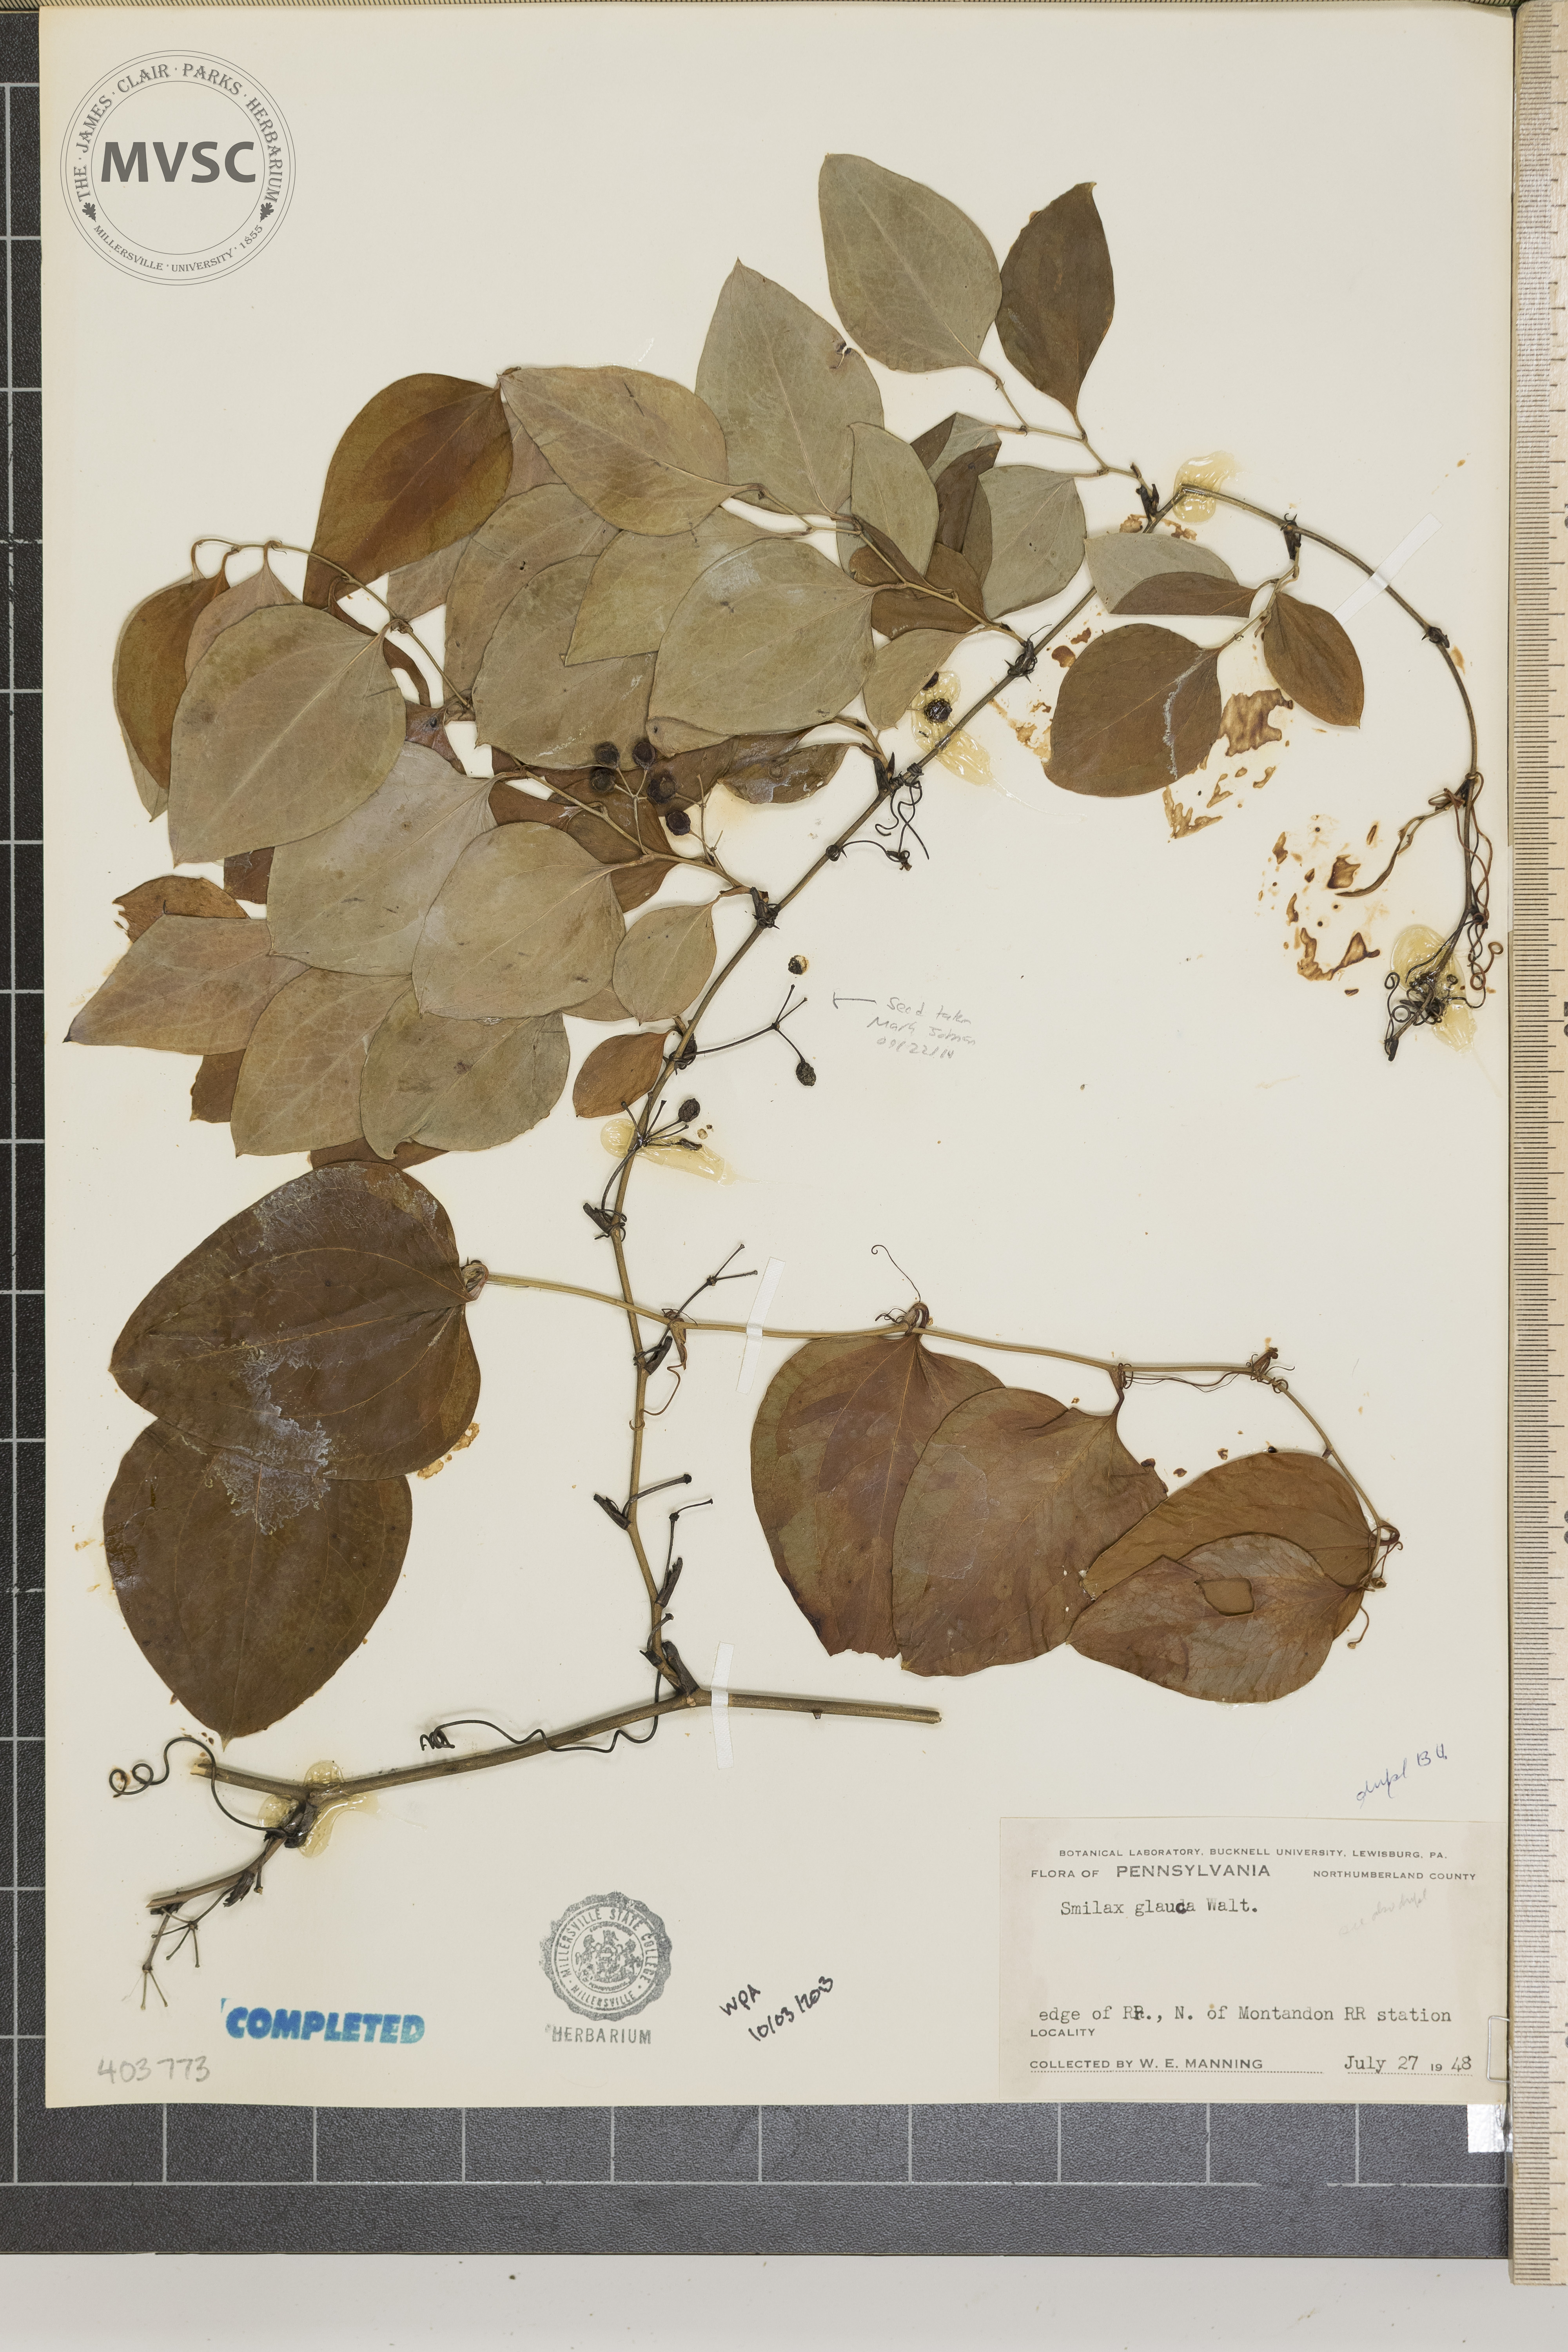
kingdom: Plantae
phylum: Tracheophyta
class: Liliopsida
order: Liliales
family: Smilacaceae
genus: Smilax
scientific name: Smilax glauca
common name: Cat greenbrier
